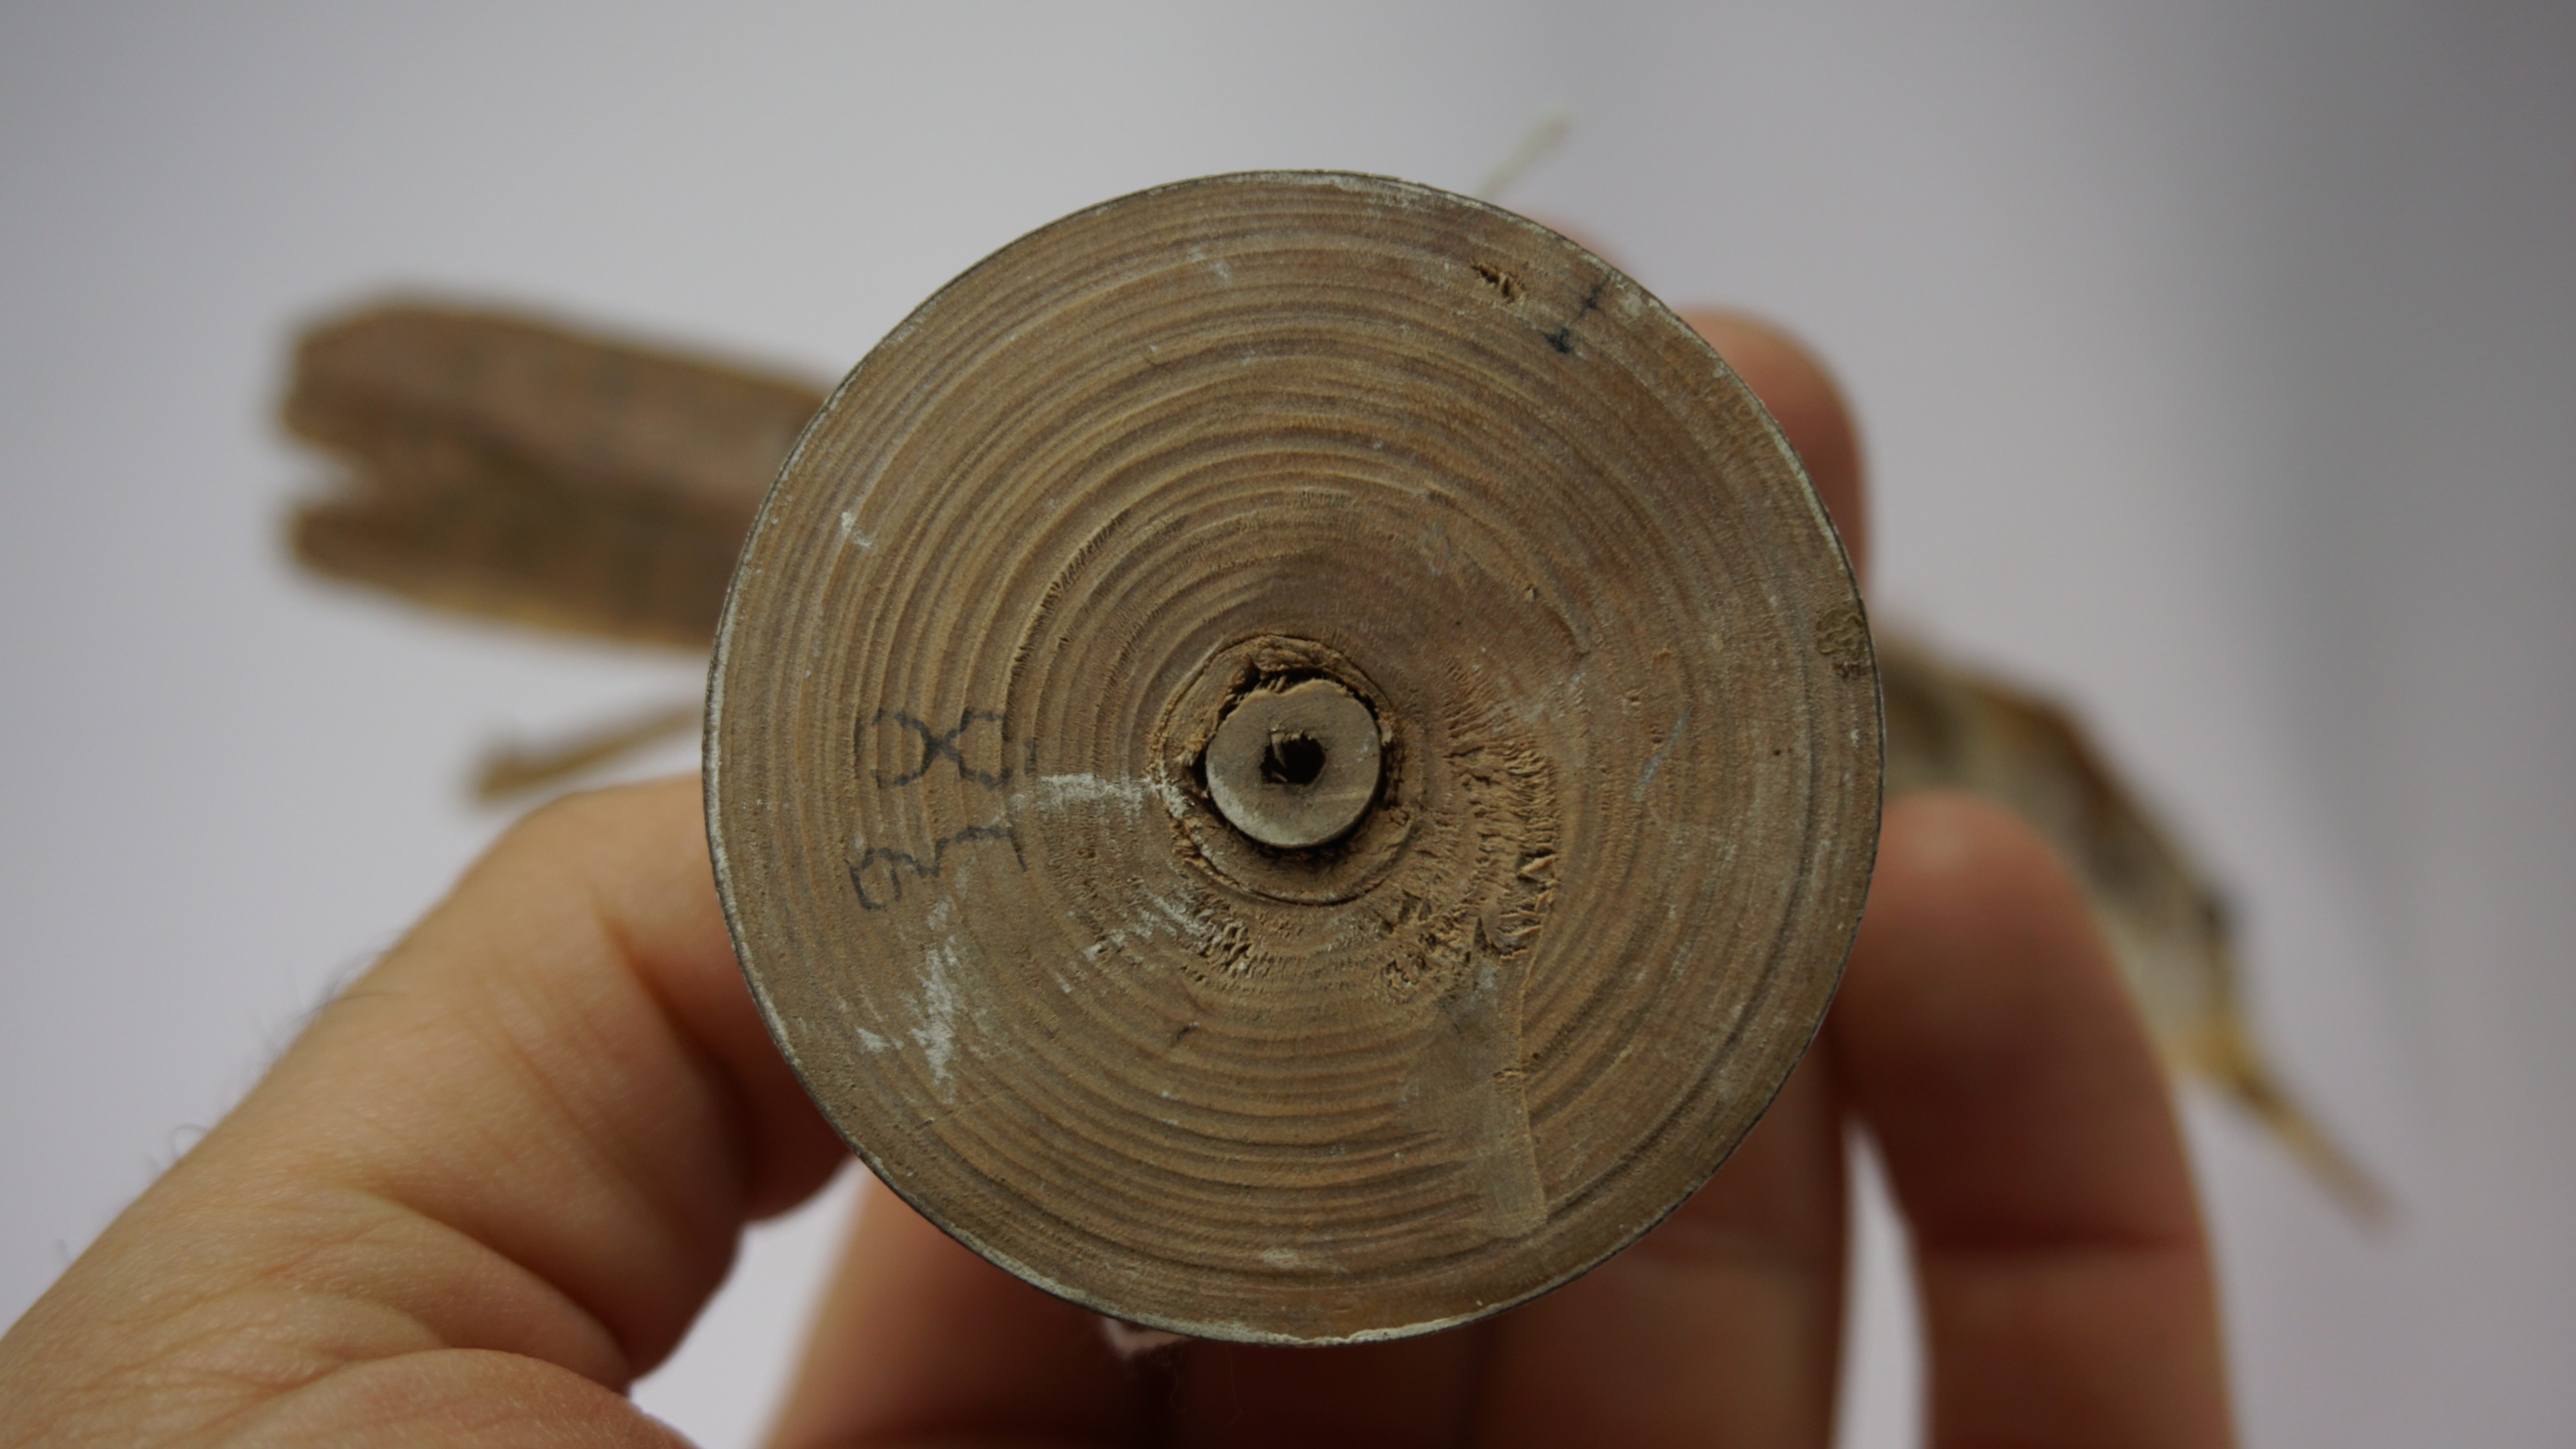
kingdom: Animalia
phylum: Chordata
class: Aves
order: Passeriformes
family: Troglodytidae
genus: Thryophilus
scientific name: Thryophilus rufalbus
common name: Rufous-and-white wren
